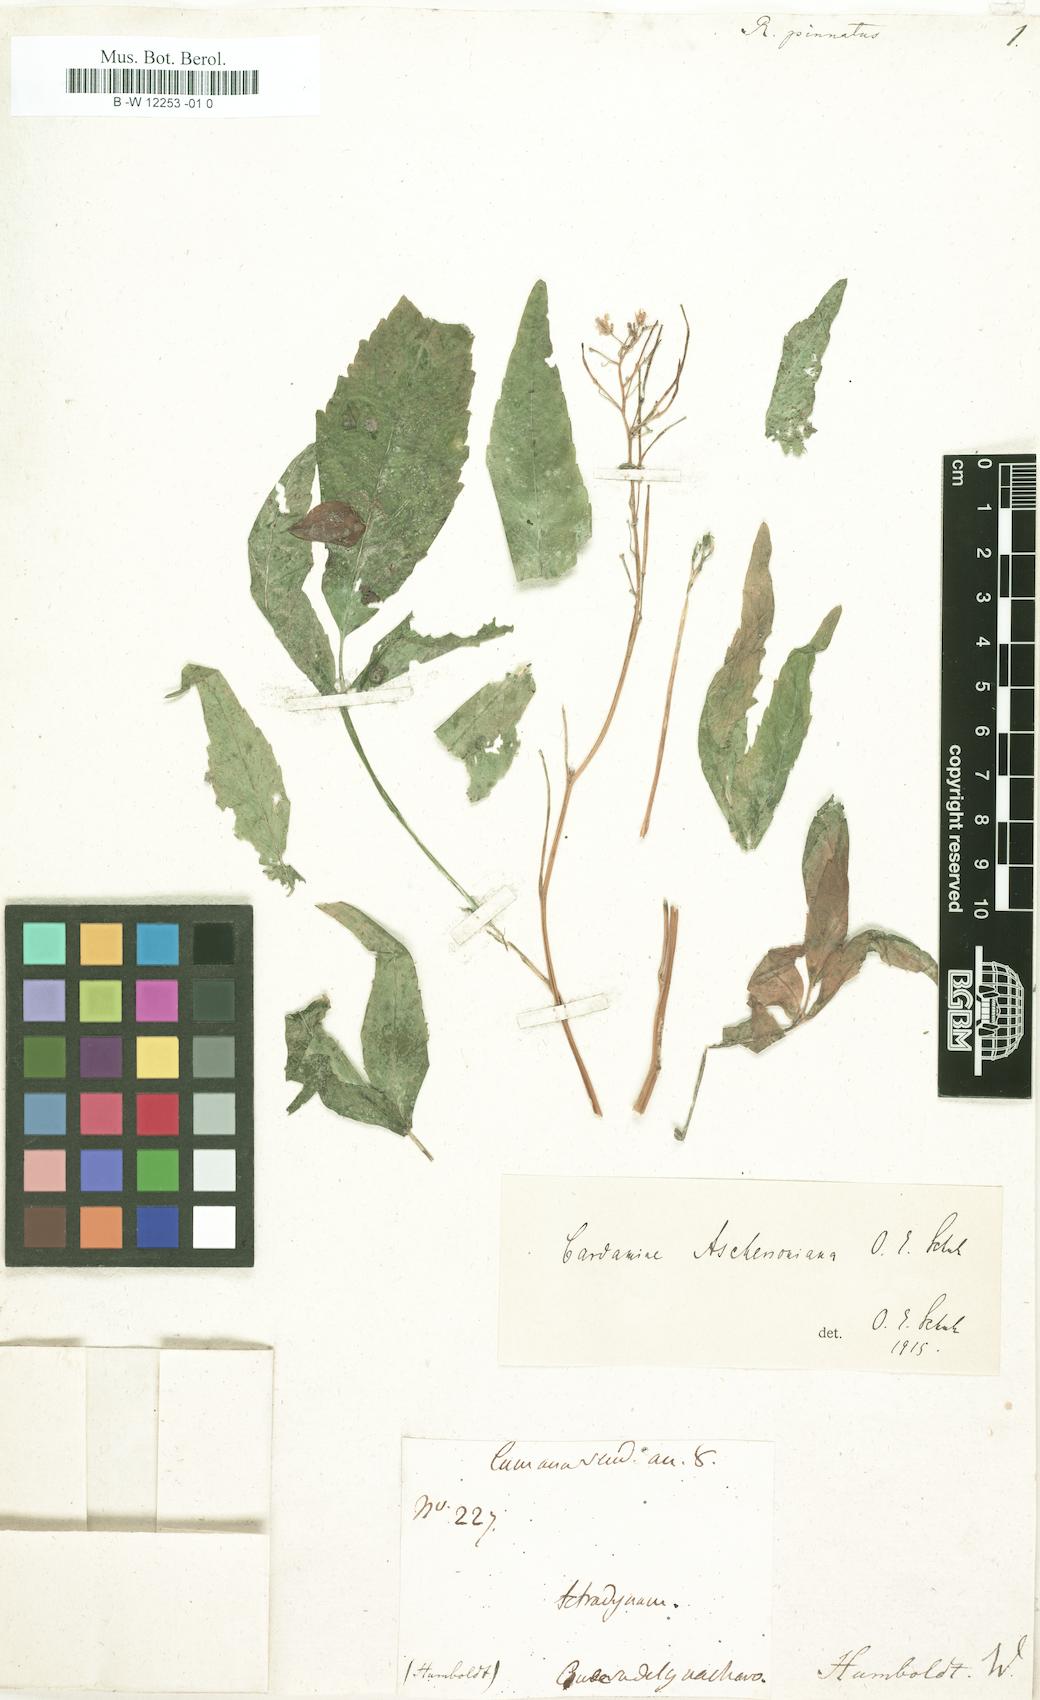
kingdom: Plantae
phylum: Tracheophyta
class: Magnoliopsida
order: Brassicales
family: Brassicaceae
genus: Erucaria
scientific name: Erucaria pinnata
